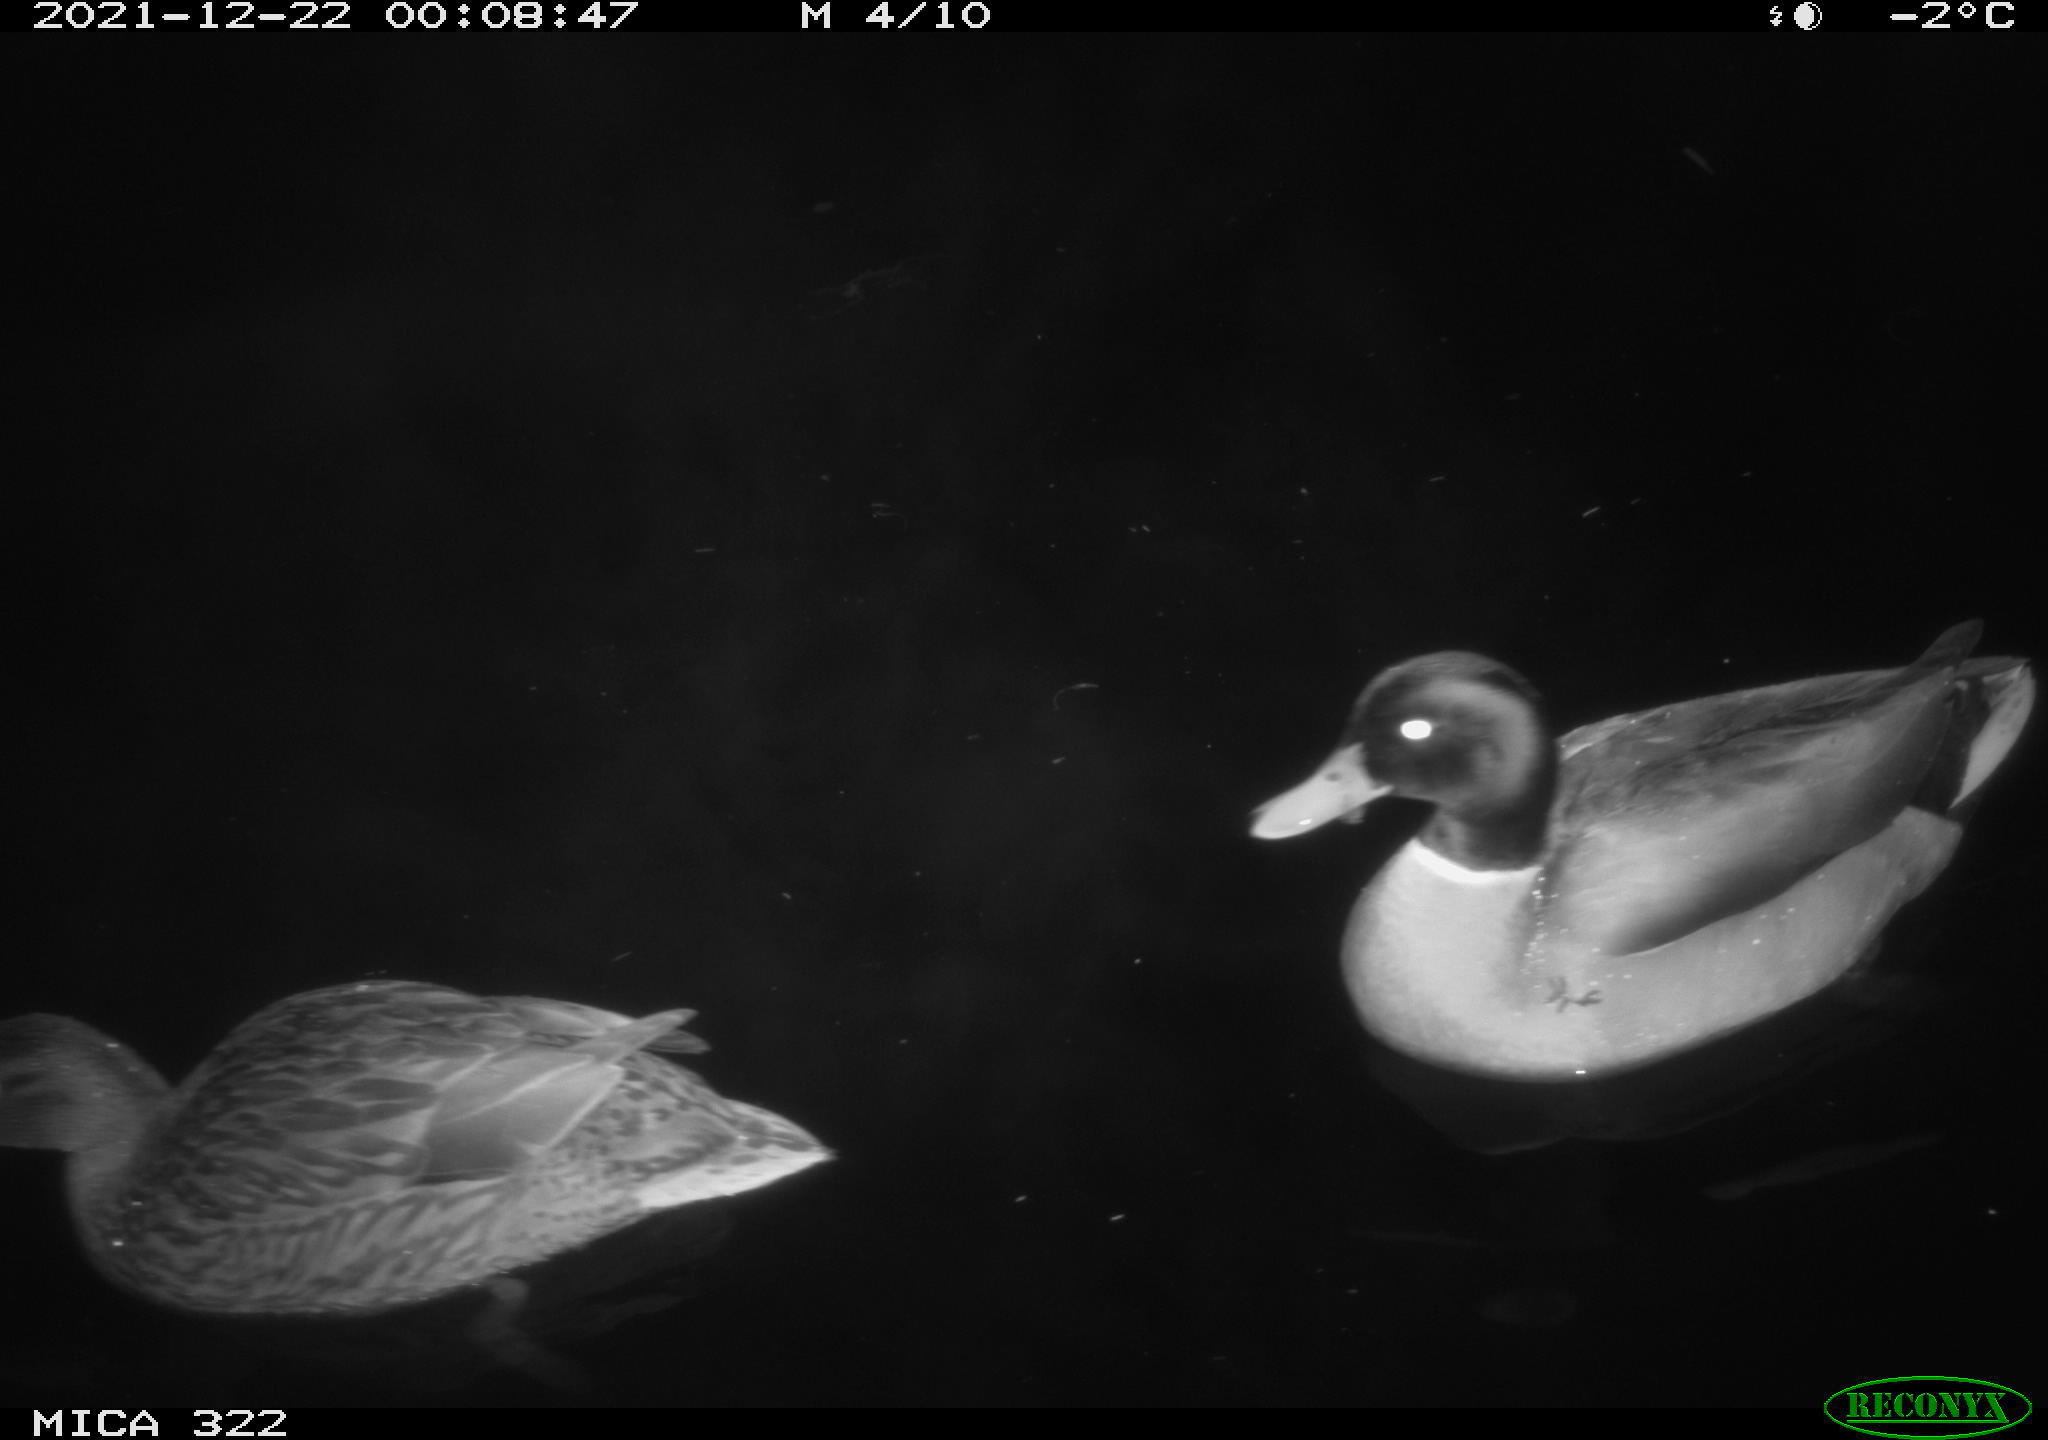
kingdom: Animalia
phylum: Chordata
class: Aves
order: Anseriformes
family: Anatidae
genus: Anas
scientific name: Anas
